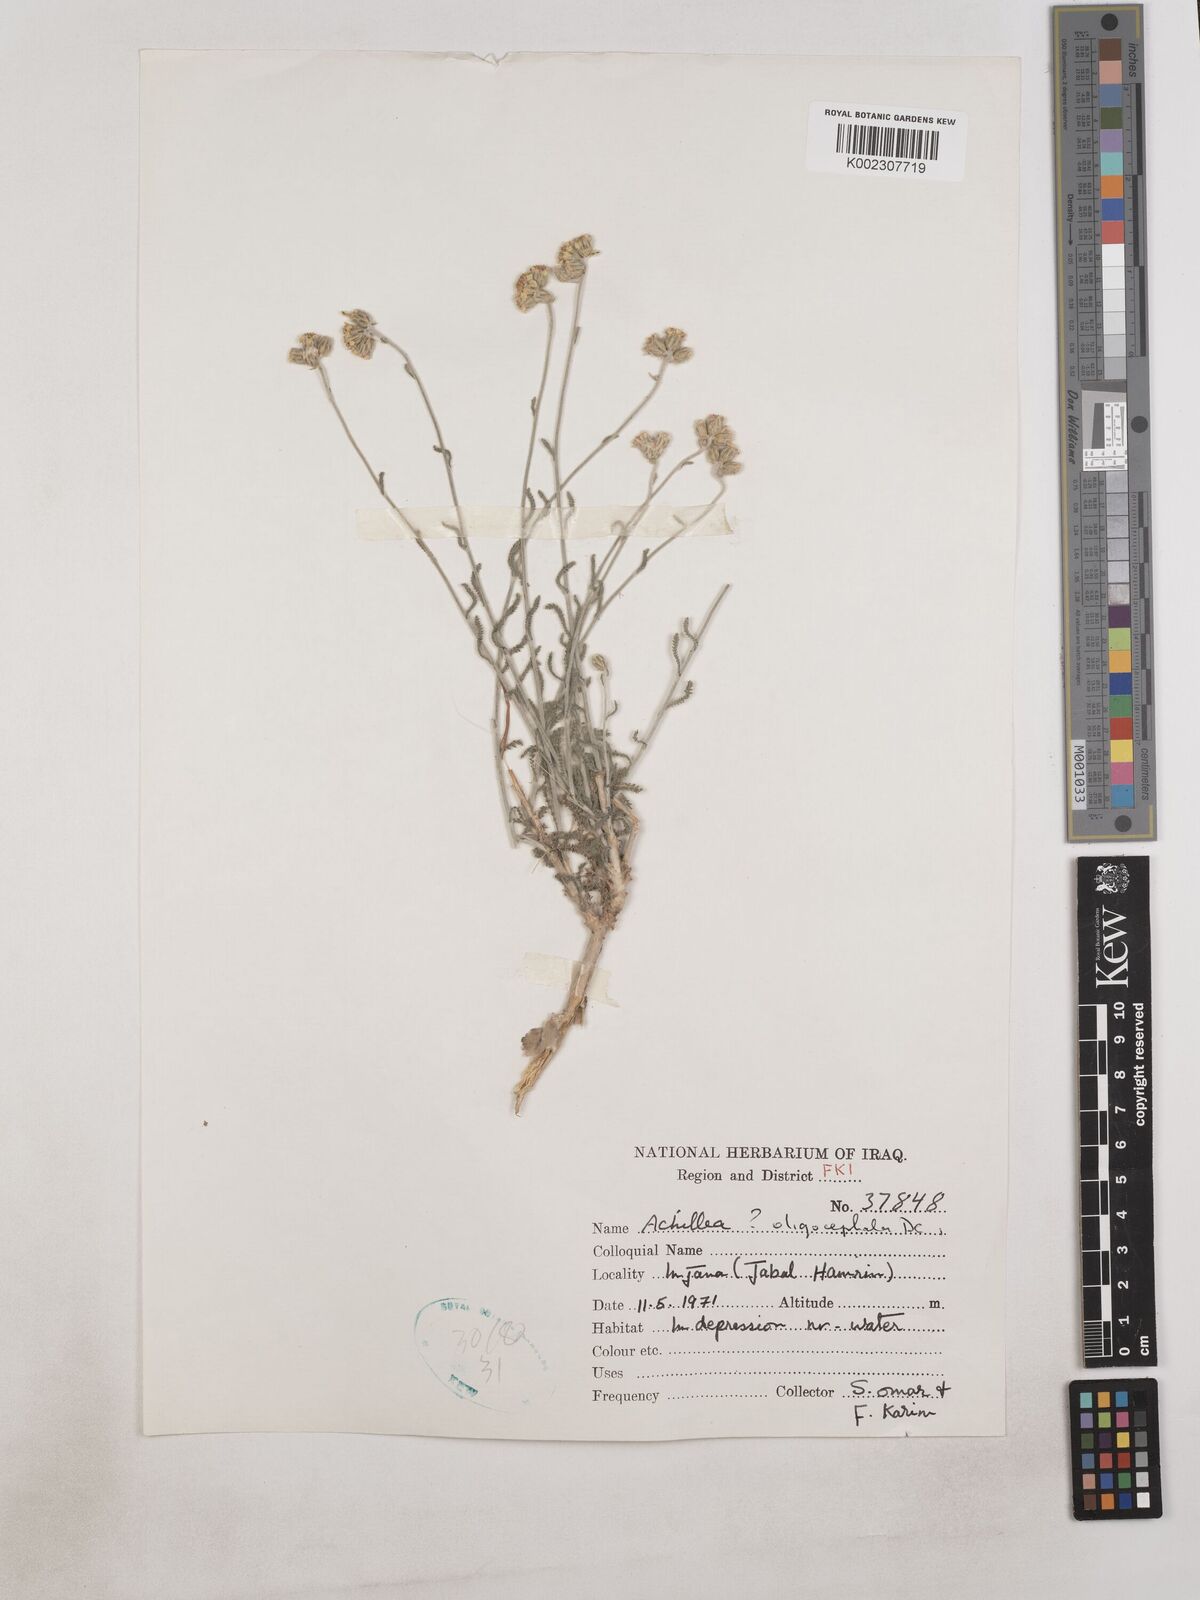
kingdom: Plantae
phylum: Tracheophyta
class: Magnoliopsida
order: Asterales
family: Asteraceae
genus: Achillea
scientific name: Achillea oligocephala
